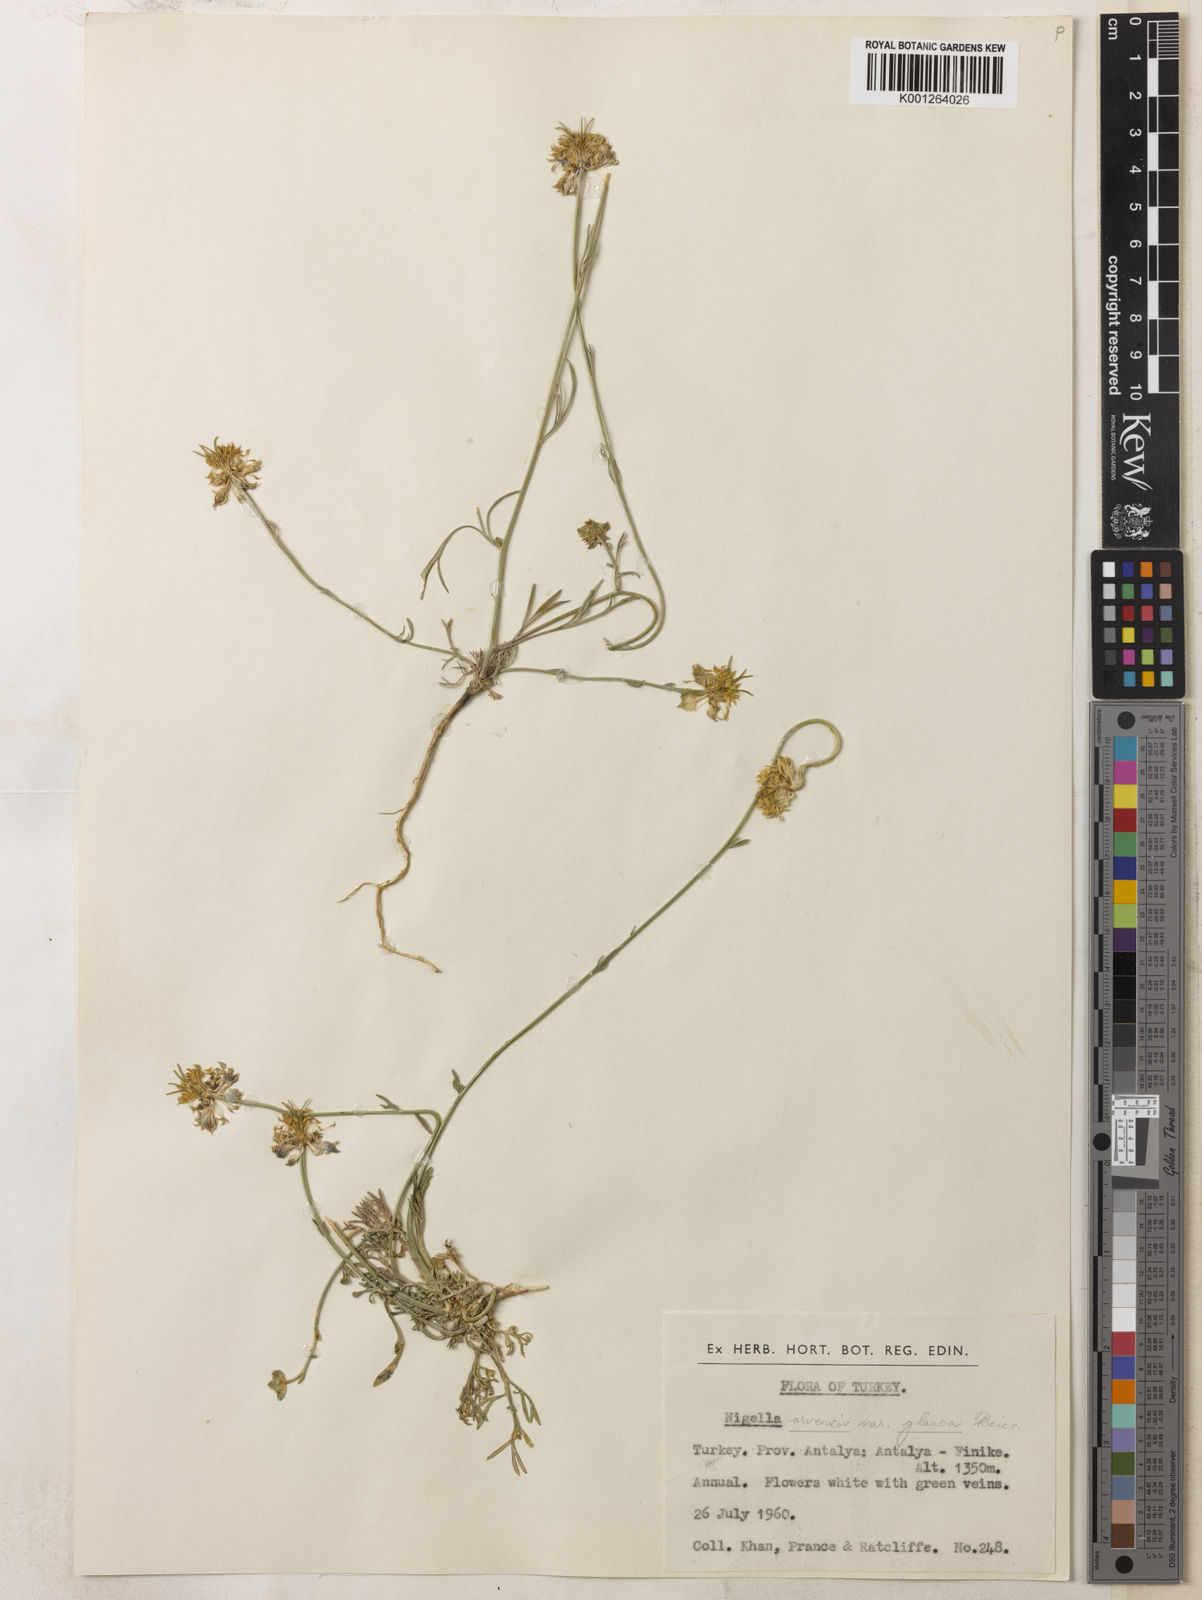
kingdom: Plantae
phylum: Tracheophyta
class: Magnoliopsida
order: Ranunculales
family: Ranunculaceae
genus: Nigella
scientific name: Nigella arvensis
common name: Wild fennel-flower
